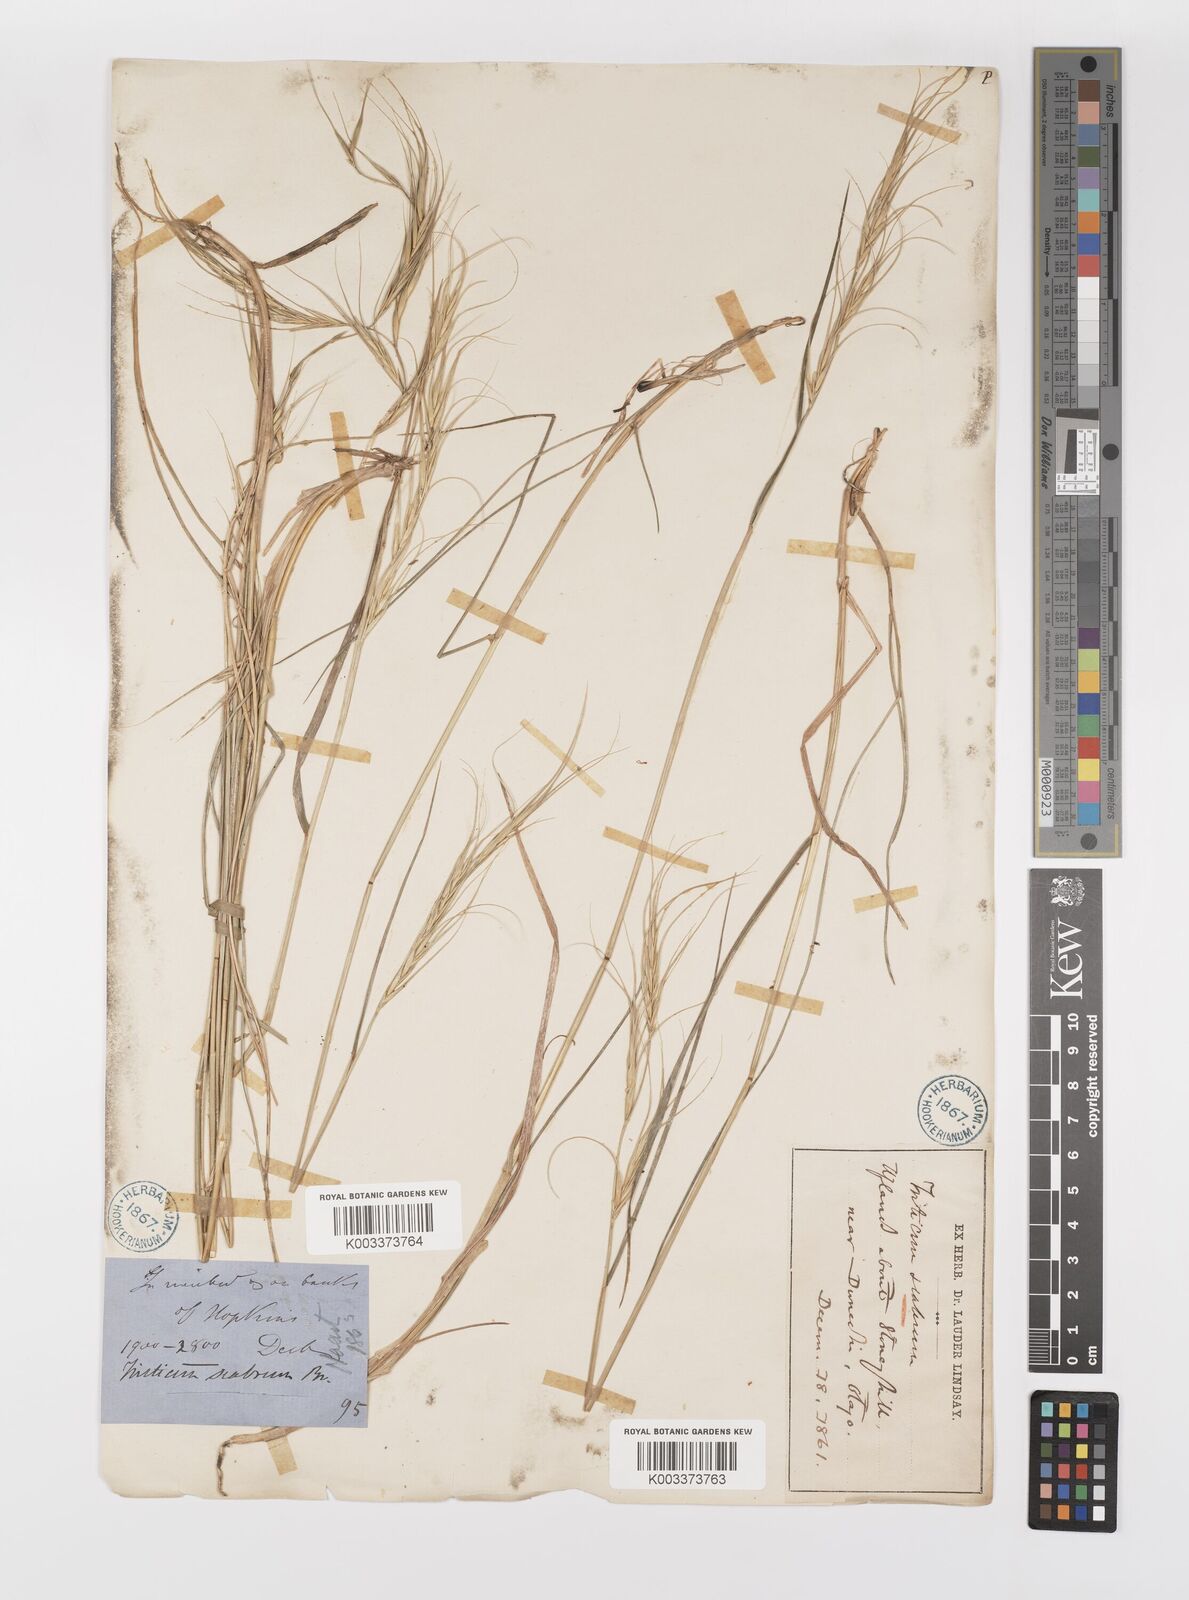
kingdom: Plantae
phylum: Tracheophyta
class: Liliopsida
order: Poales
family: Poaceae
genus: Anthosachne
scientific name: Anthosachne scabra
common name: Common wheatgrass
